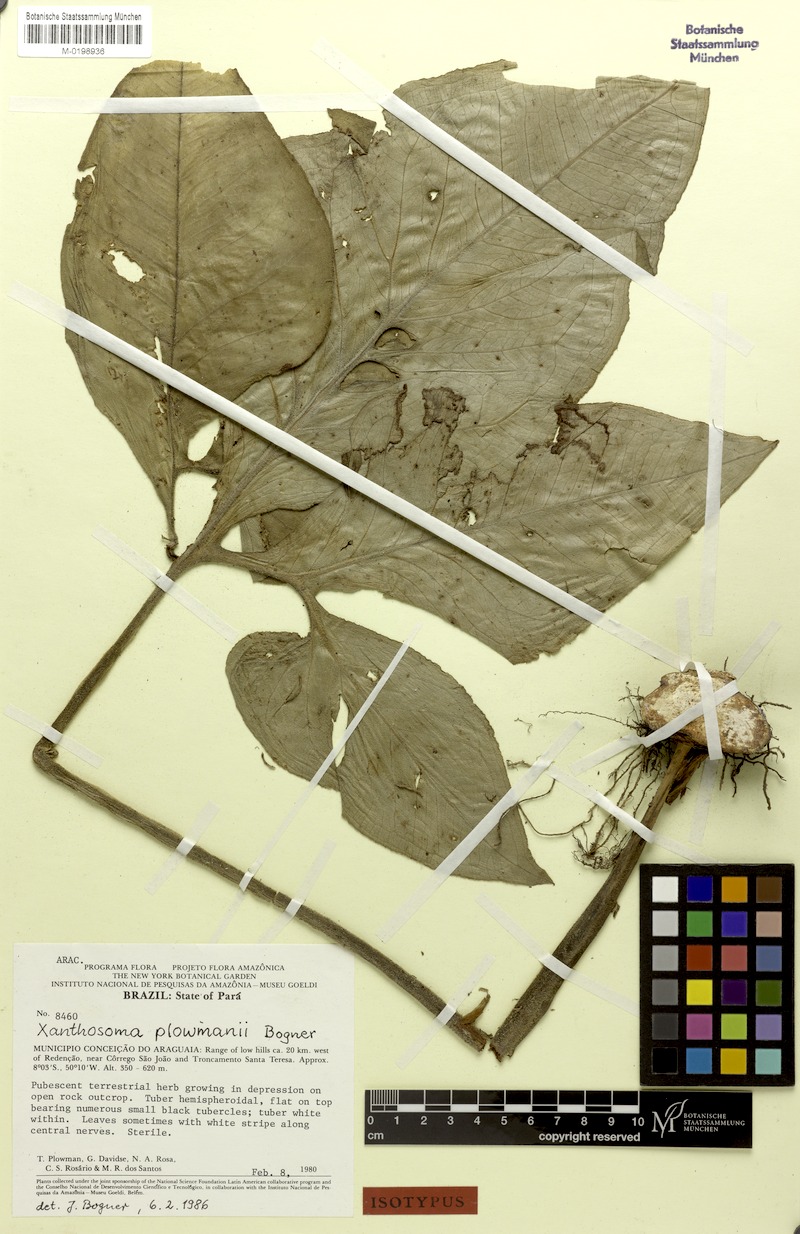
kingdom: Plantae
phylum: Tracheophyta
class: Liliopsida
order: Alismatales
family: Araceae
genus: Xanthosoma
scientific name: Xanthosoma plowmanii
